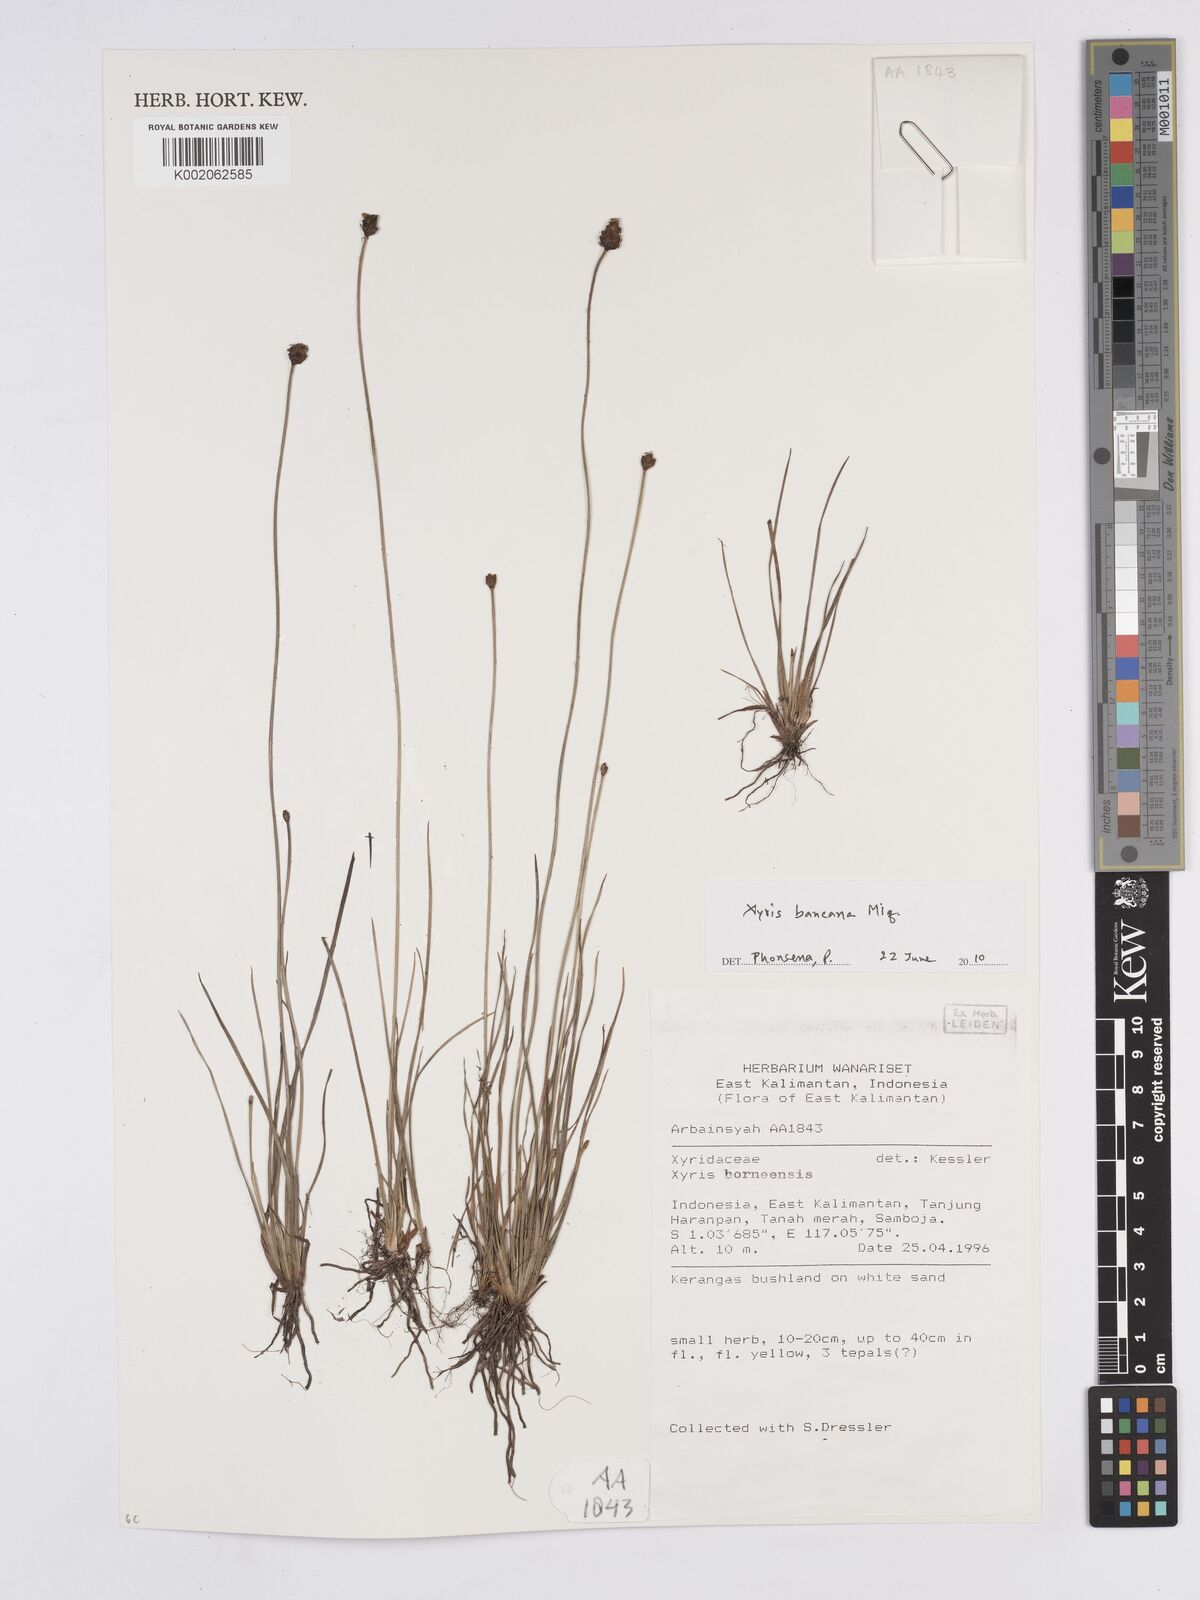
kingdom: Plantae
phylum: Tracheophyta
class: Liliopsida
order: Poales
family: Xyridaceae
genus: Xyris
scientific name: Xyris bancana
